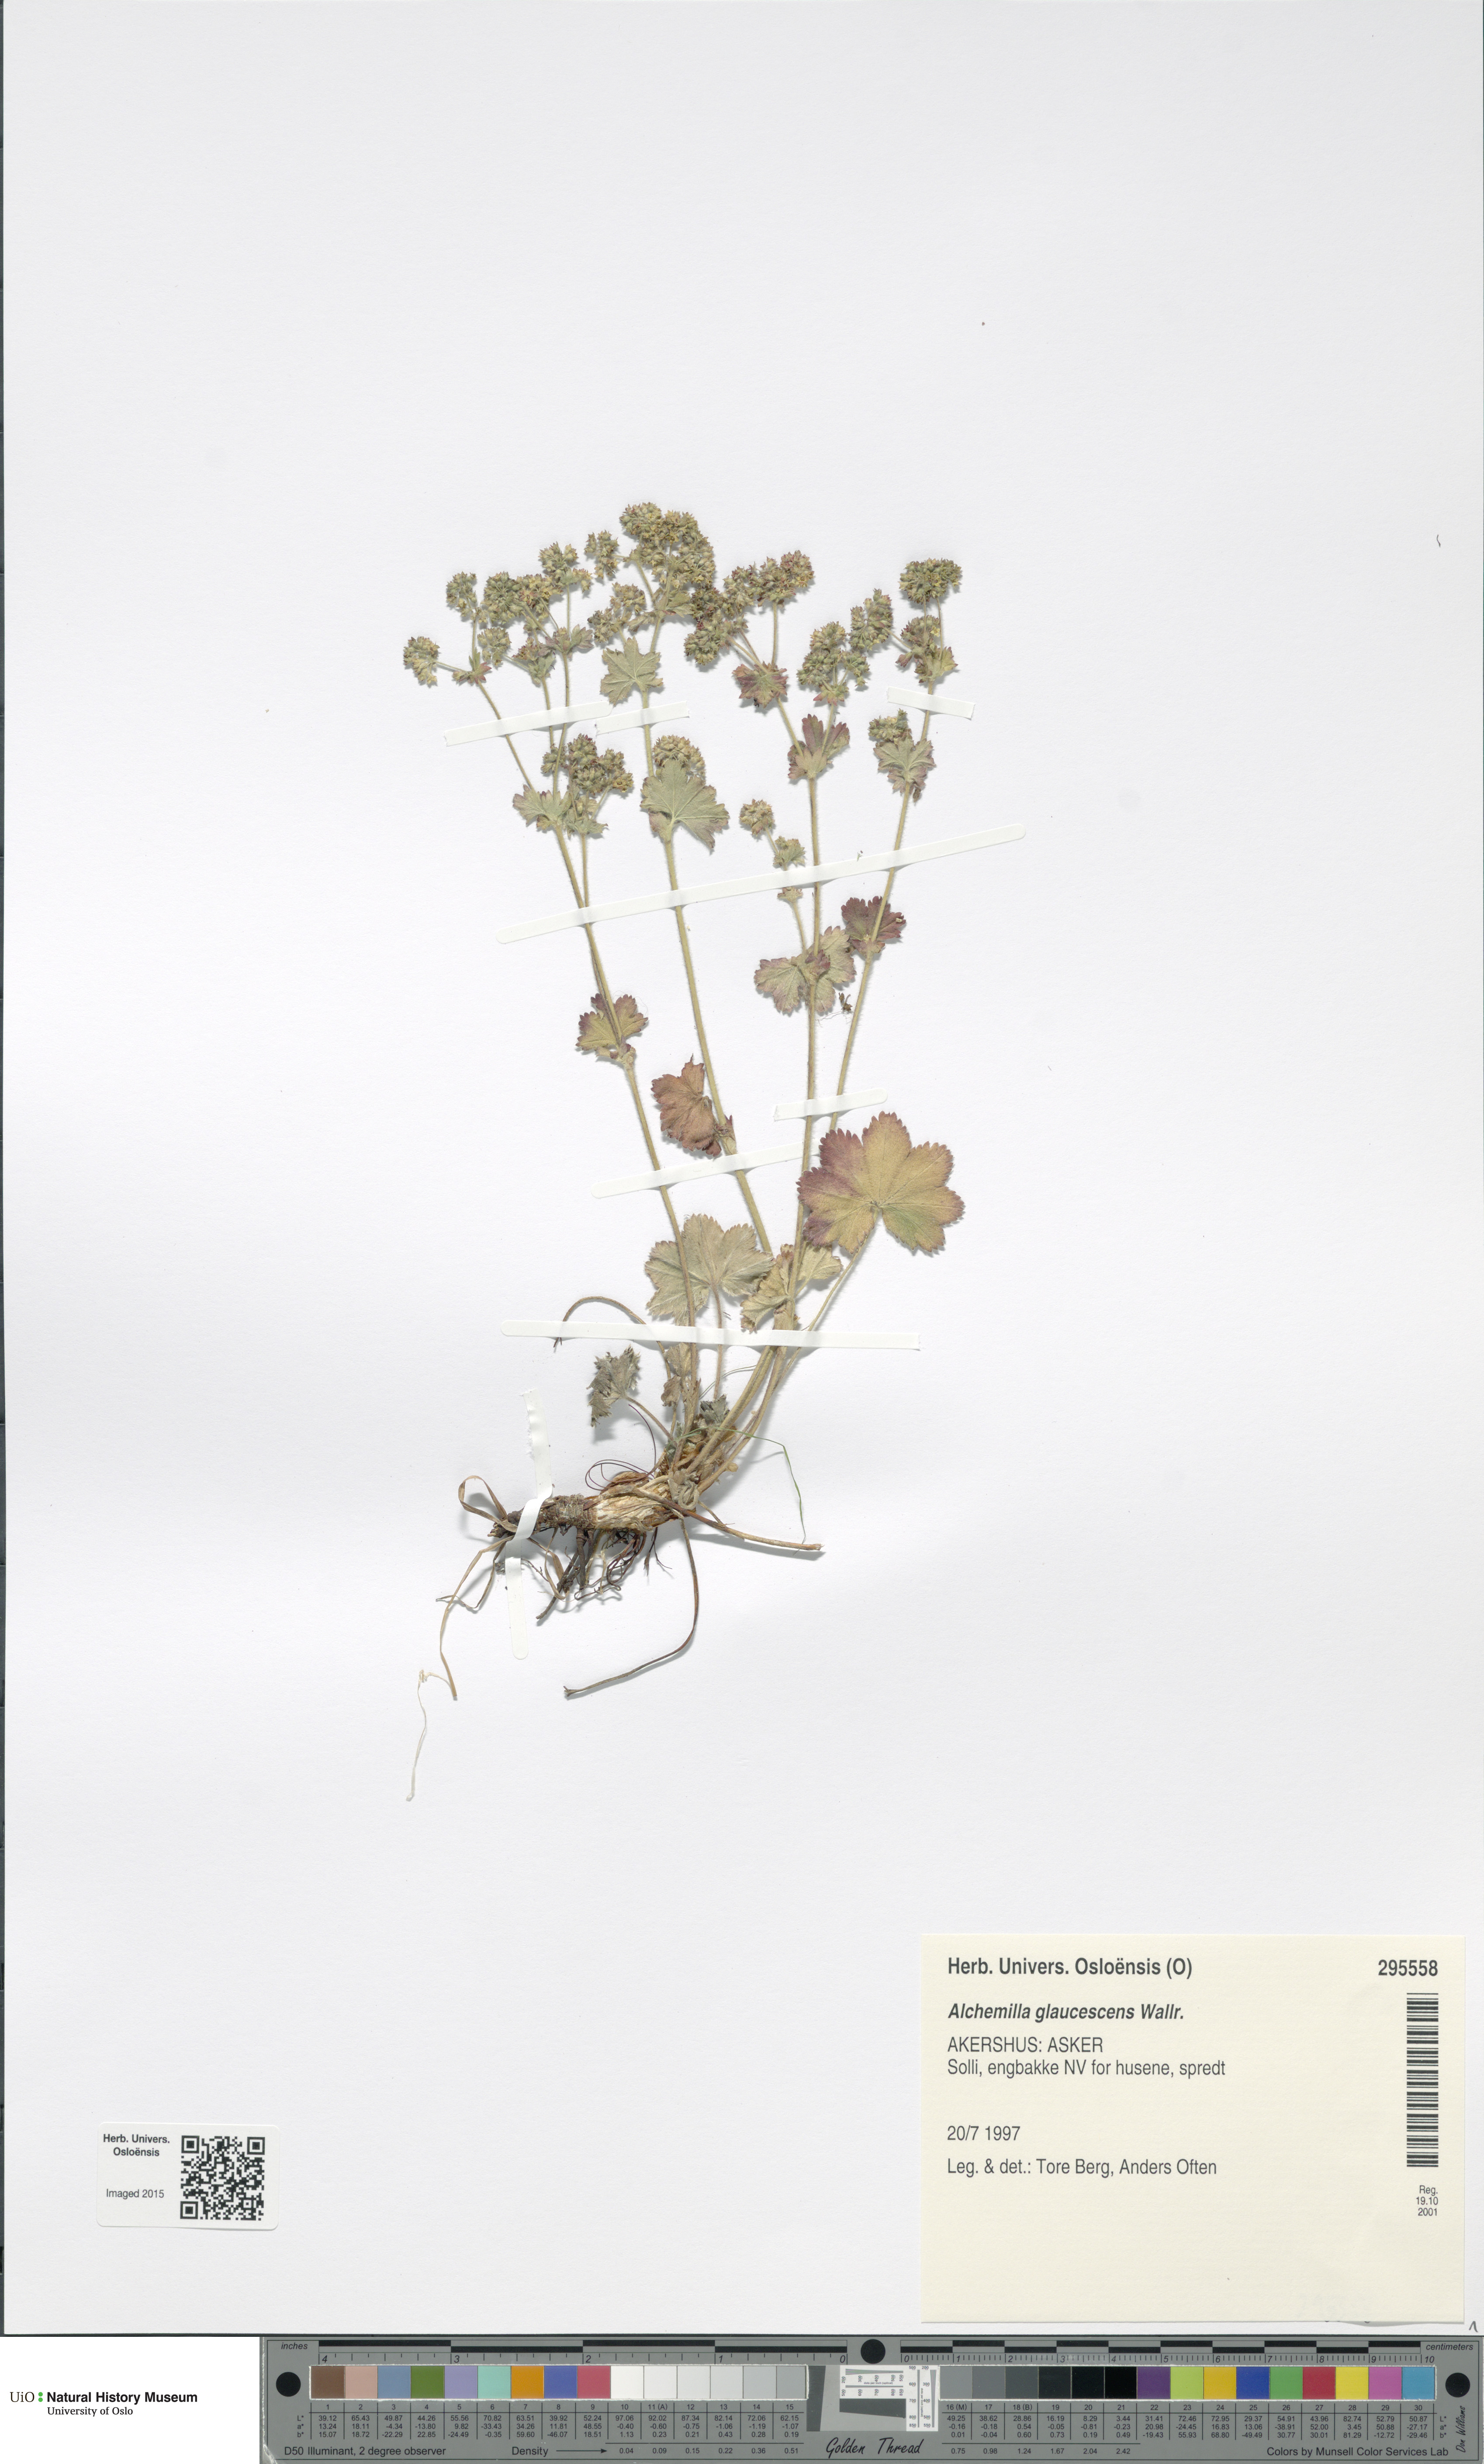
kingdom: Plantae
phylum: Tracheophyta
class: Magnoliopsida
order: Rosales
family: Rosaceae
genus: Alchemilla
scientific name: Alchemilla glaucescens
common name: Silky lady's mantle
